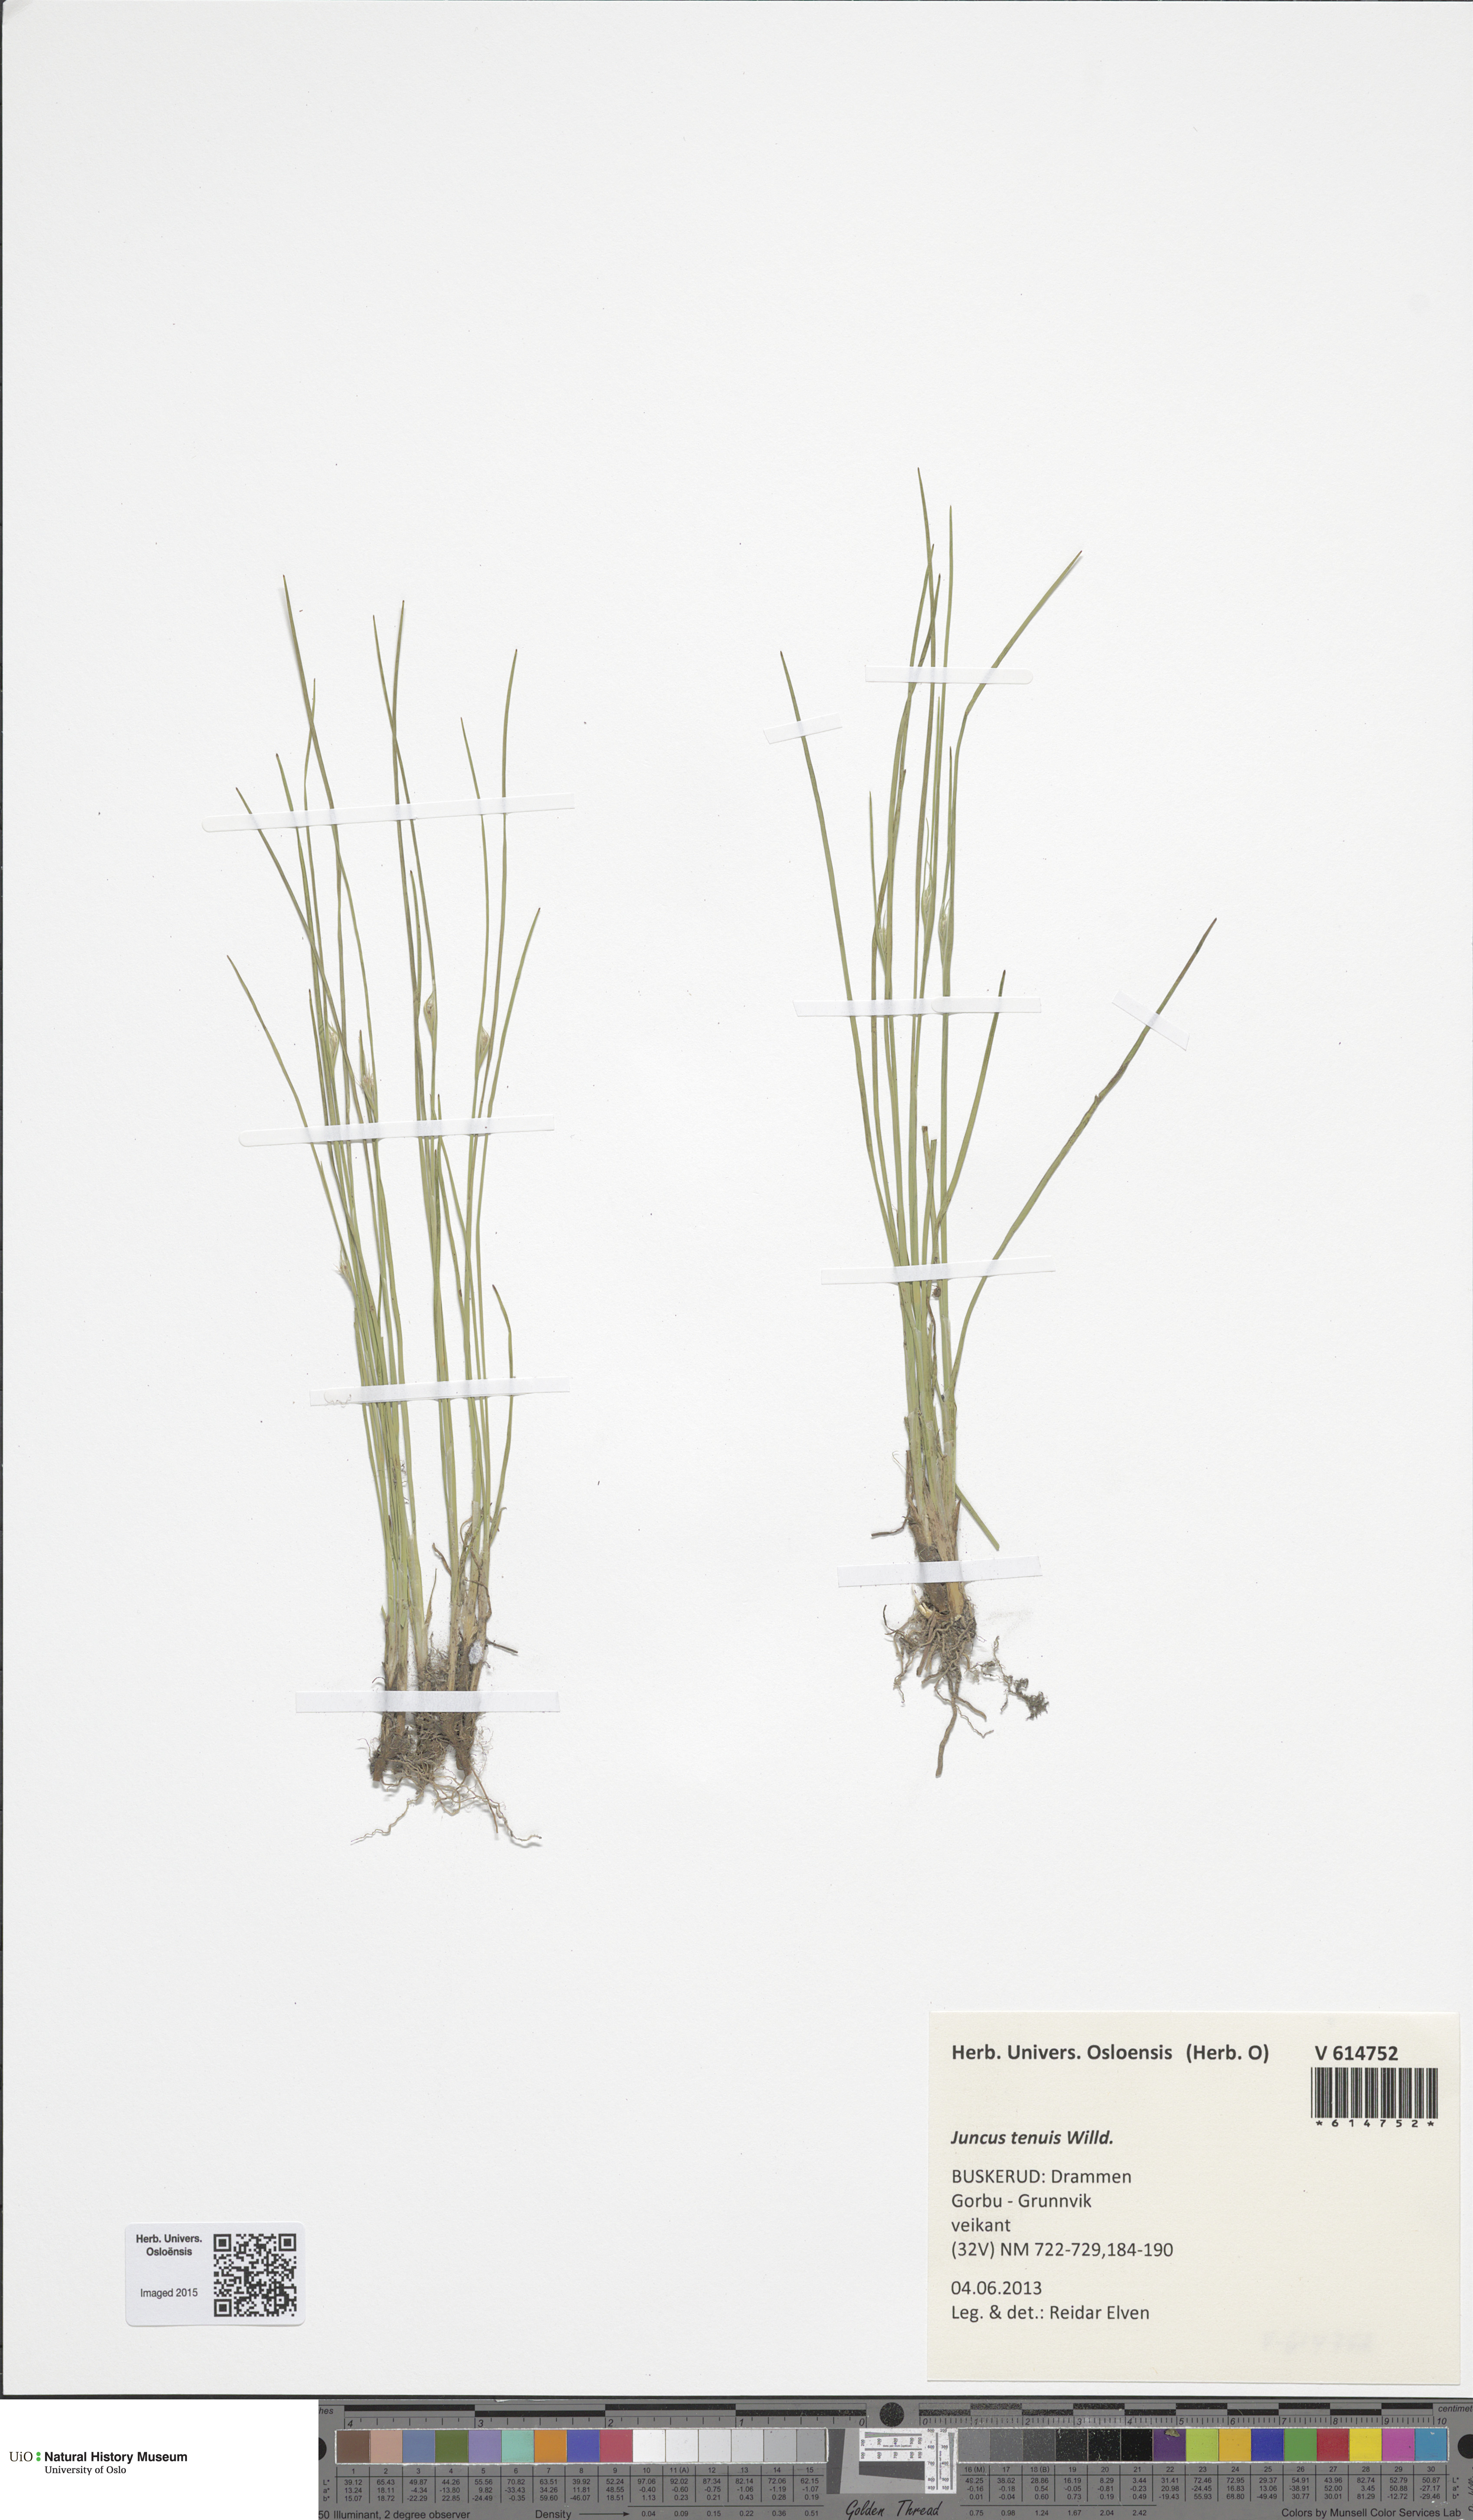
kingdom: Plantae
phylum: Tracheophyta
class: Liliopsida
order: Poales
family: Juncaceae
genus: Juncus
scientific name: Juncus compressus
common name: Round-fruited rush
